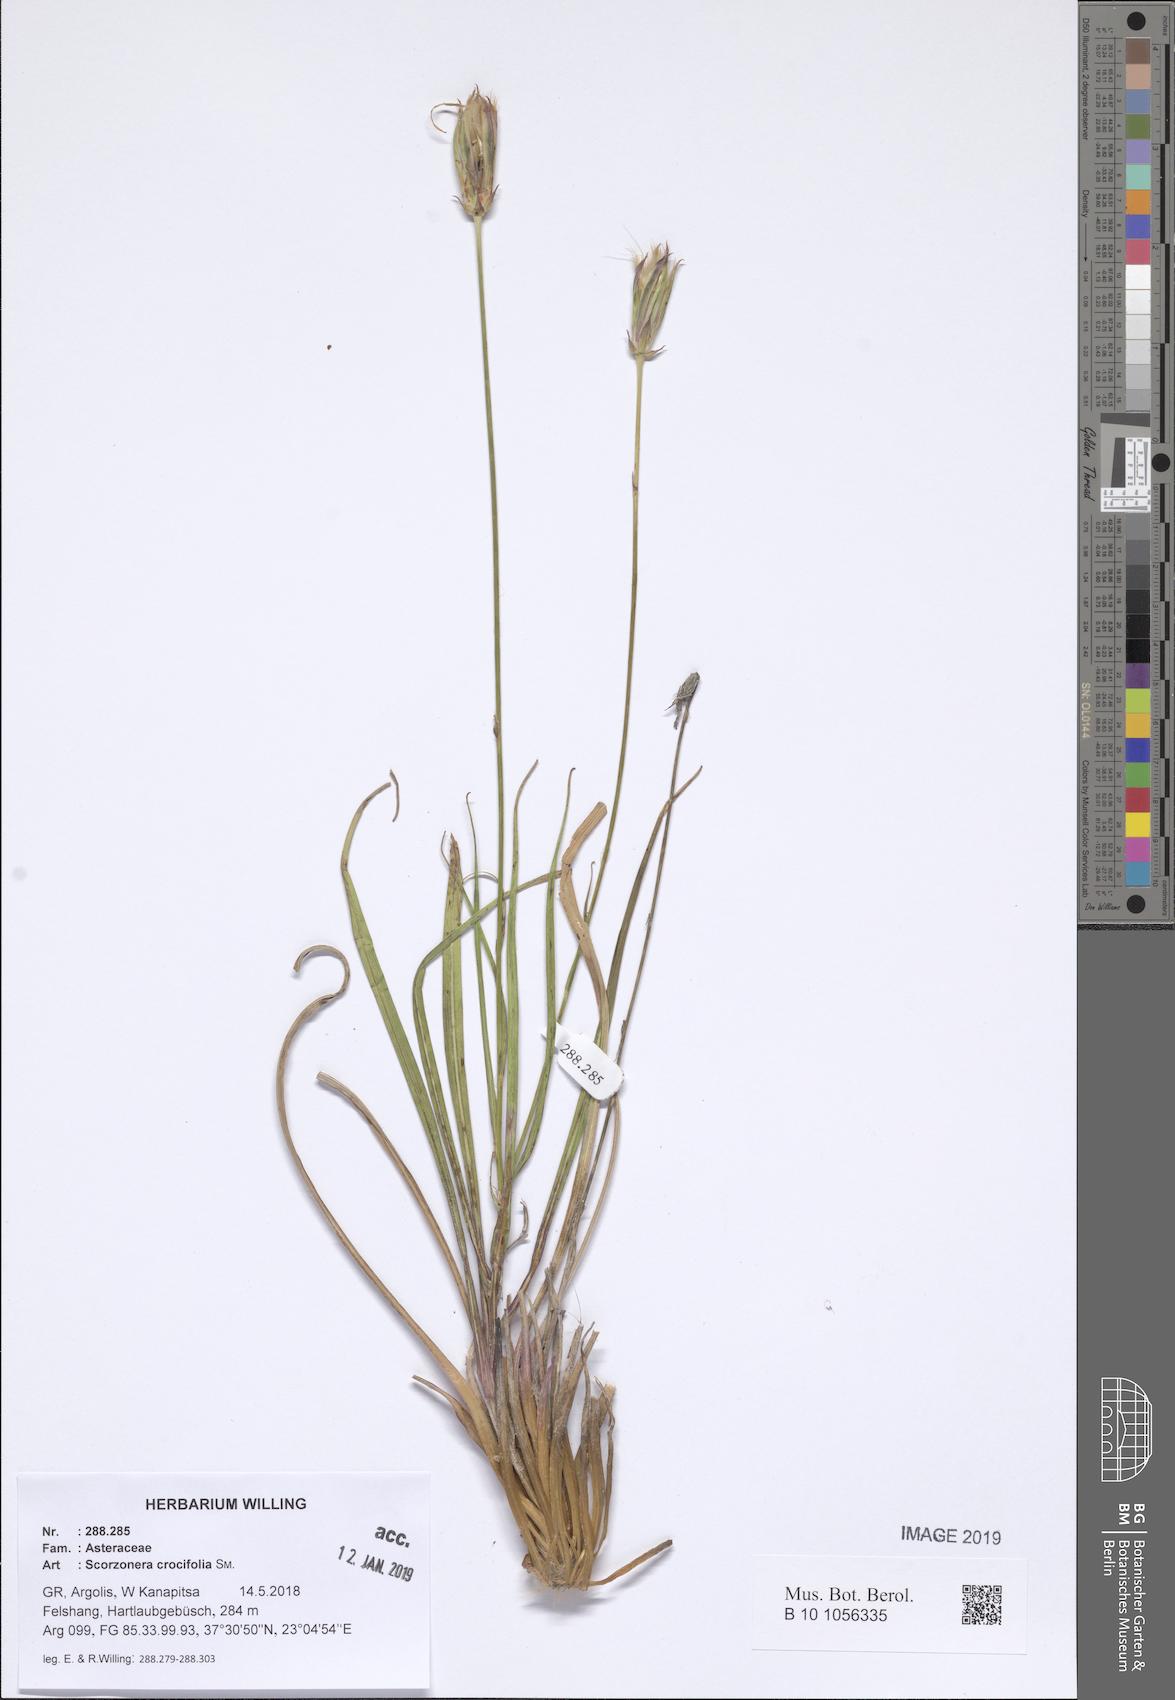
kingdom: Plantae
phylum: Tracheophyta
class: Magnoliopsida
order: Asterales
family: Asteraceae
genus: Pseudopodospermum
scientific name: Pseudopodospermum crocifolium
